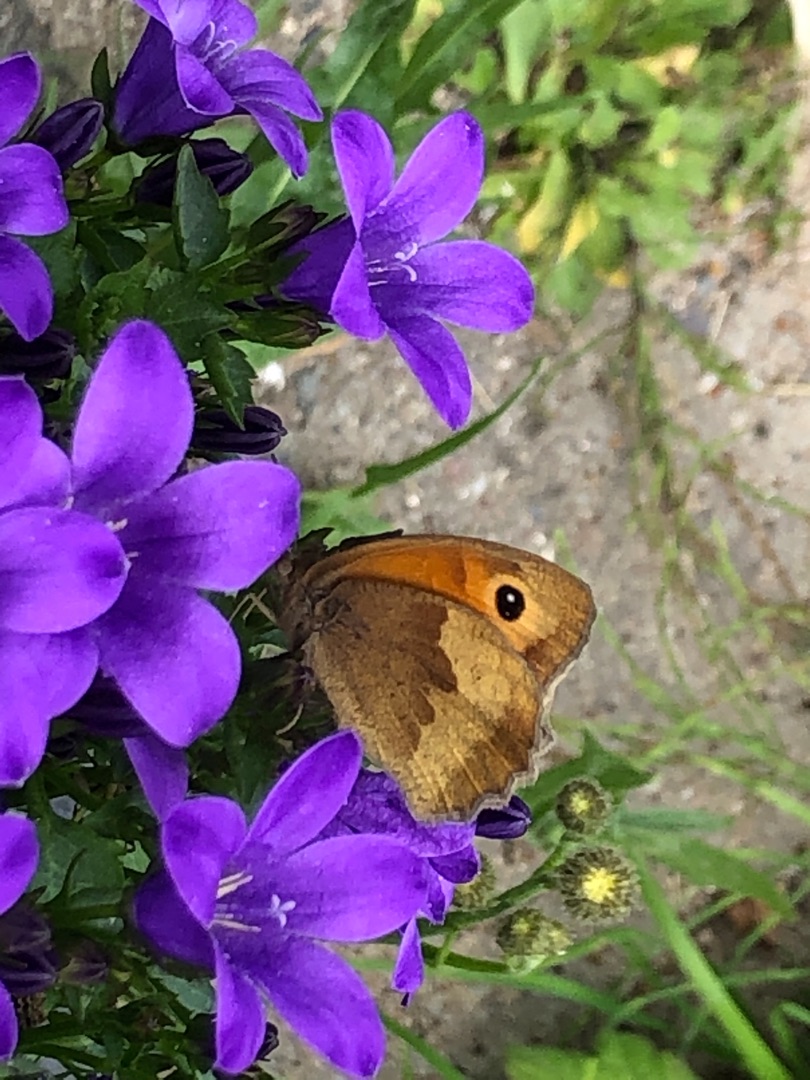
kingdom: Animalia
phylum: Arthropoda
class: Insecta
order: Lepidoptera
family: Nymphalidae
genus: Maniola
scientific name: Maniola jurtina
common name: Græsrandøje
